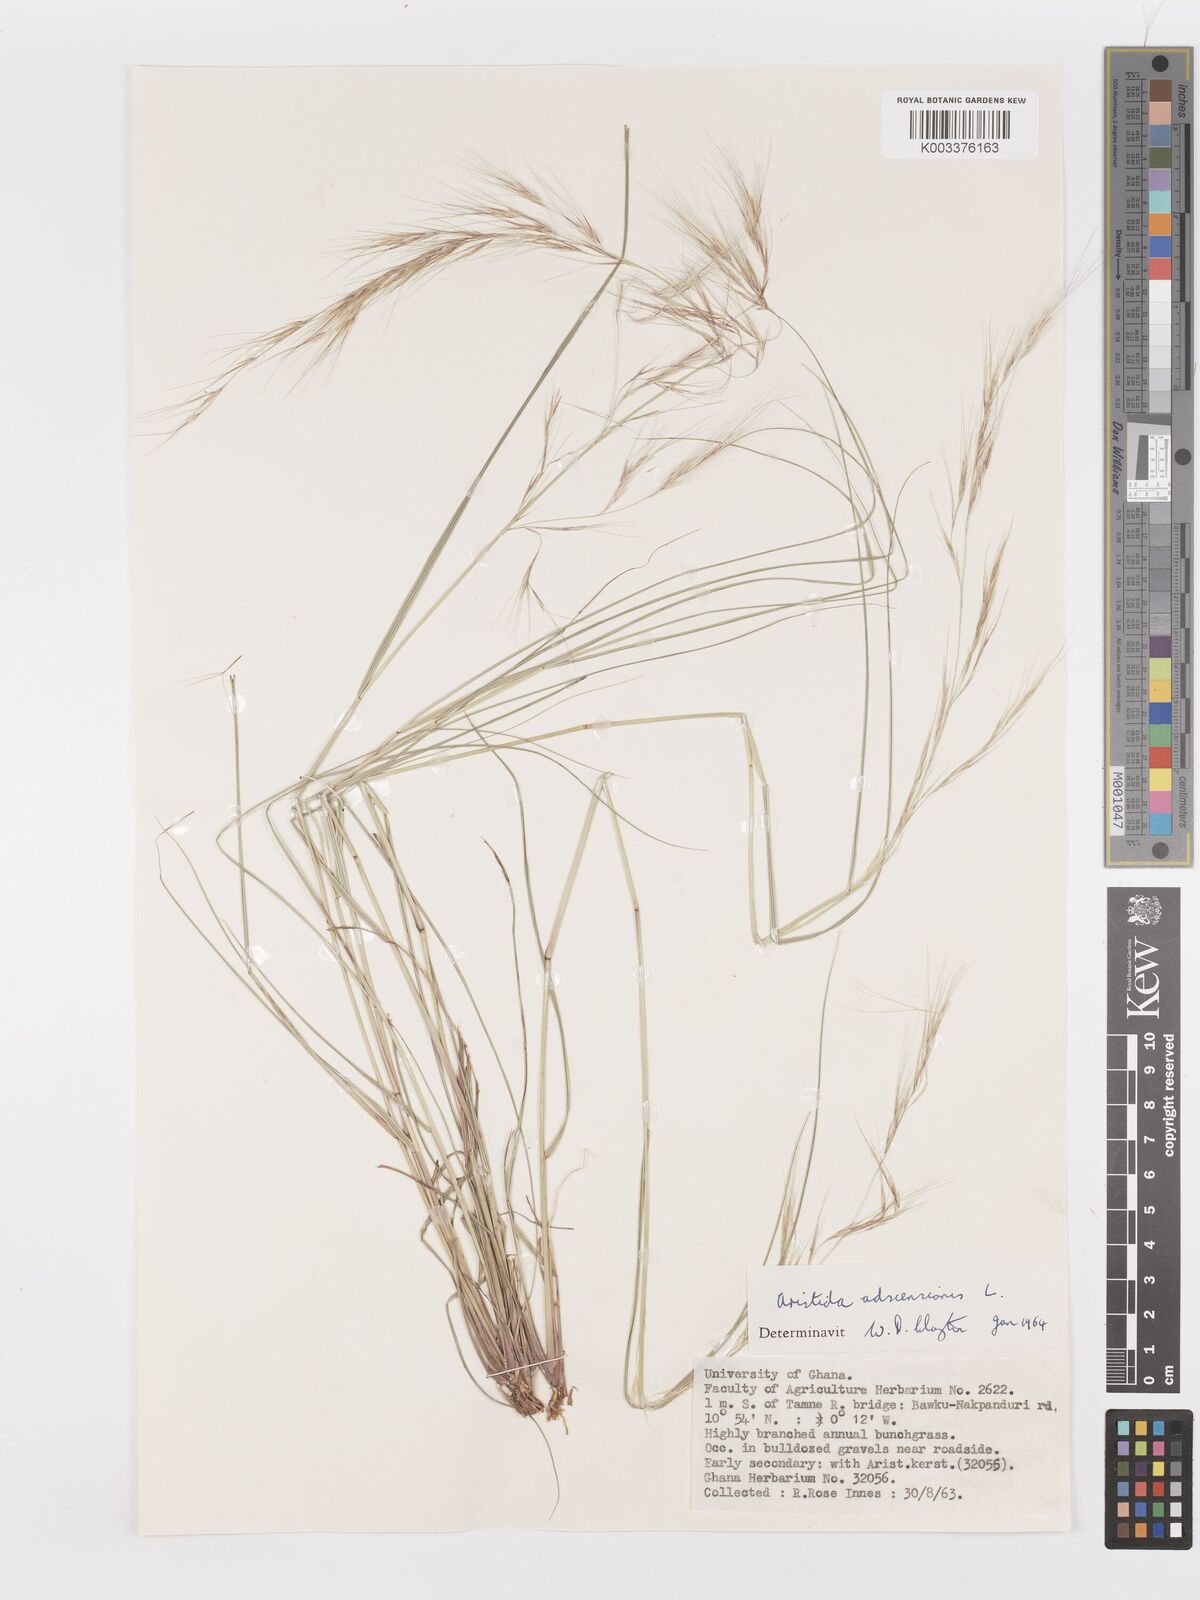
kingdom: Plantae
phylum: Tracheophyta
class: Liliopsida
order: Poales
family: Poaceae
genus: Aristida
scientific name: Aristida adscensionis
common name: Sixweeks threeawn
